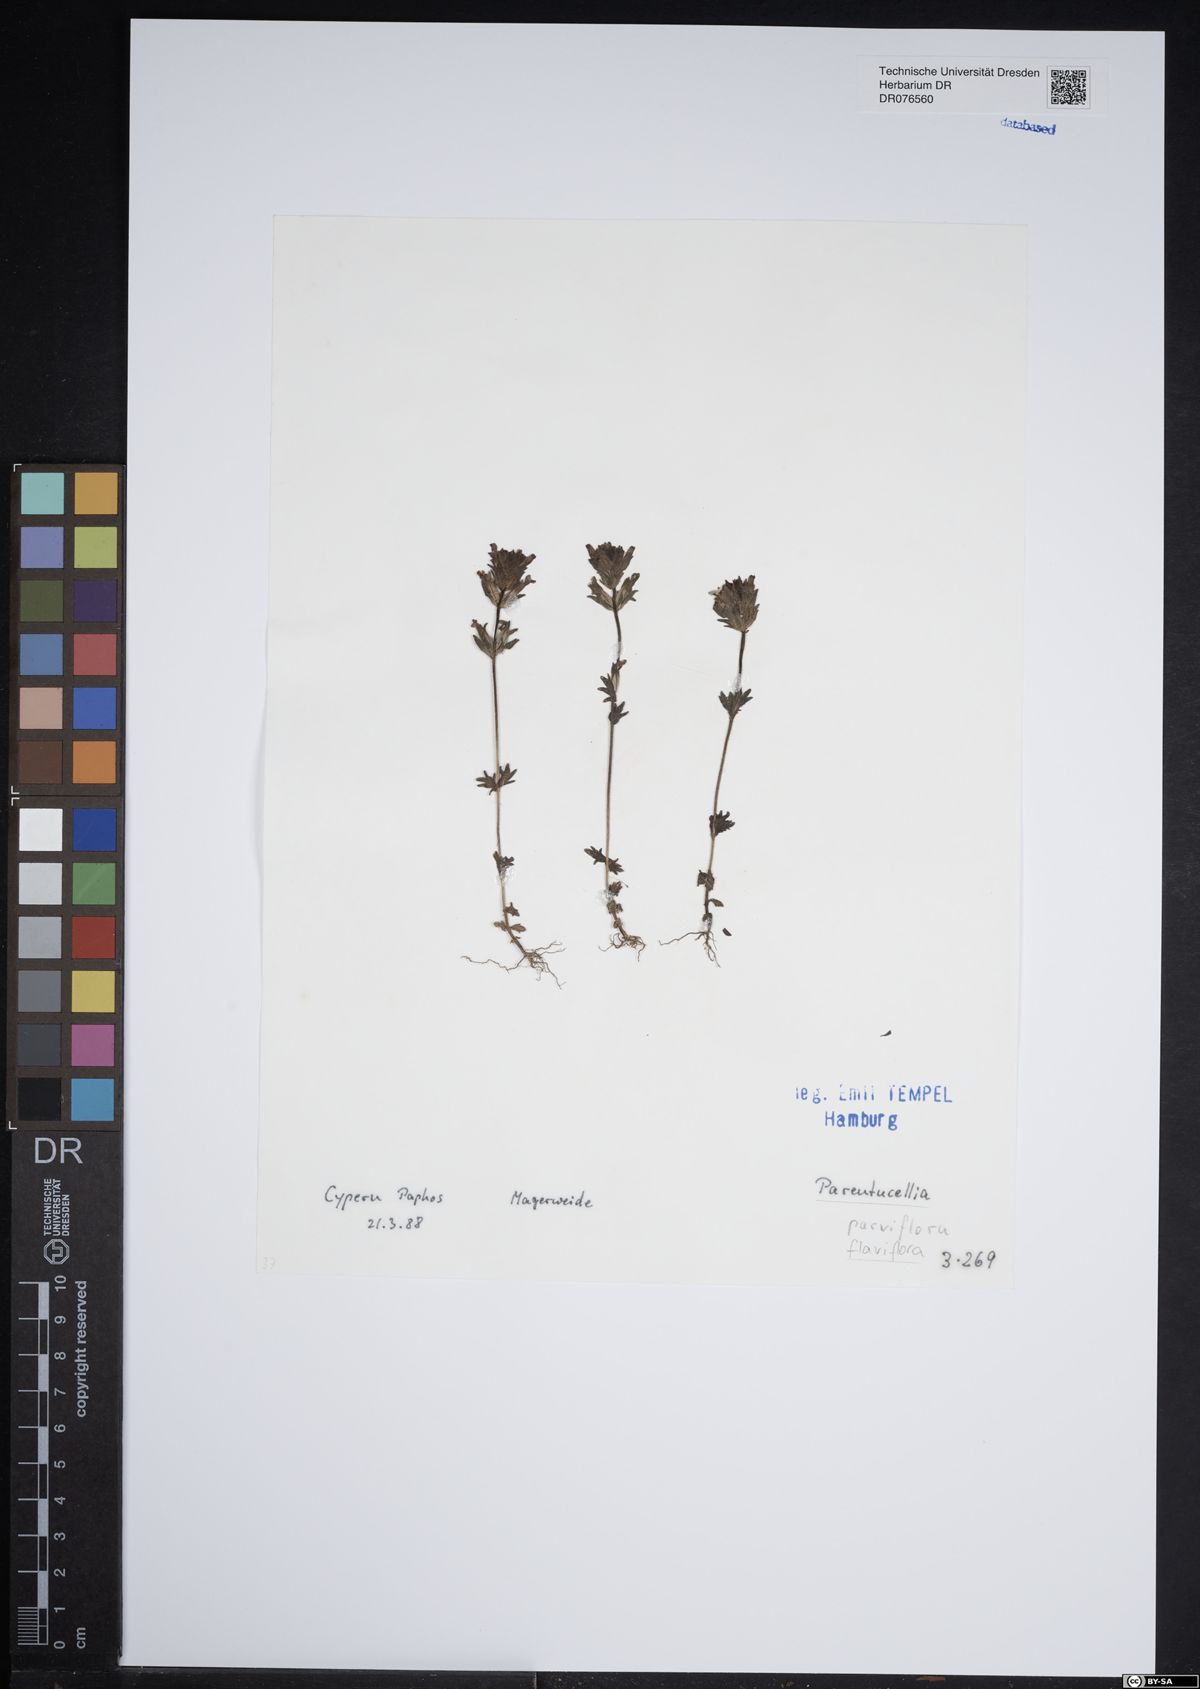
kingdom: Plantae
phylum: Tracheophyta
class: Magnoliopsida
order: Lamiales
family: Orobanchaceae
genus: Parentucellia
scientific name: Parentucellia flaviflora
